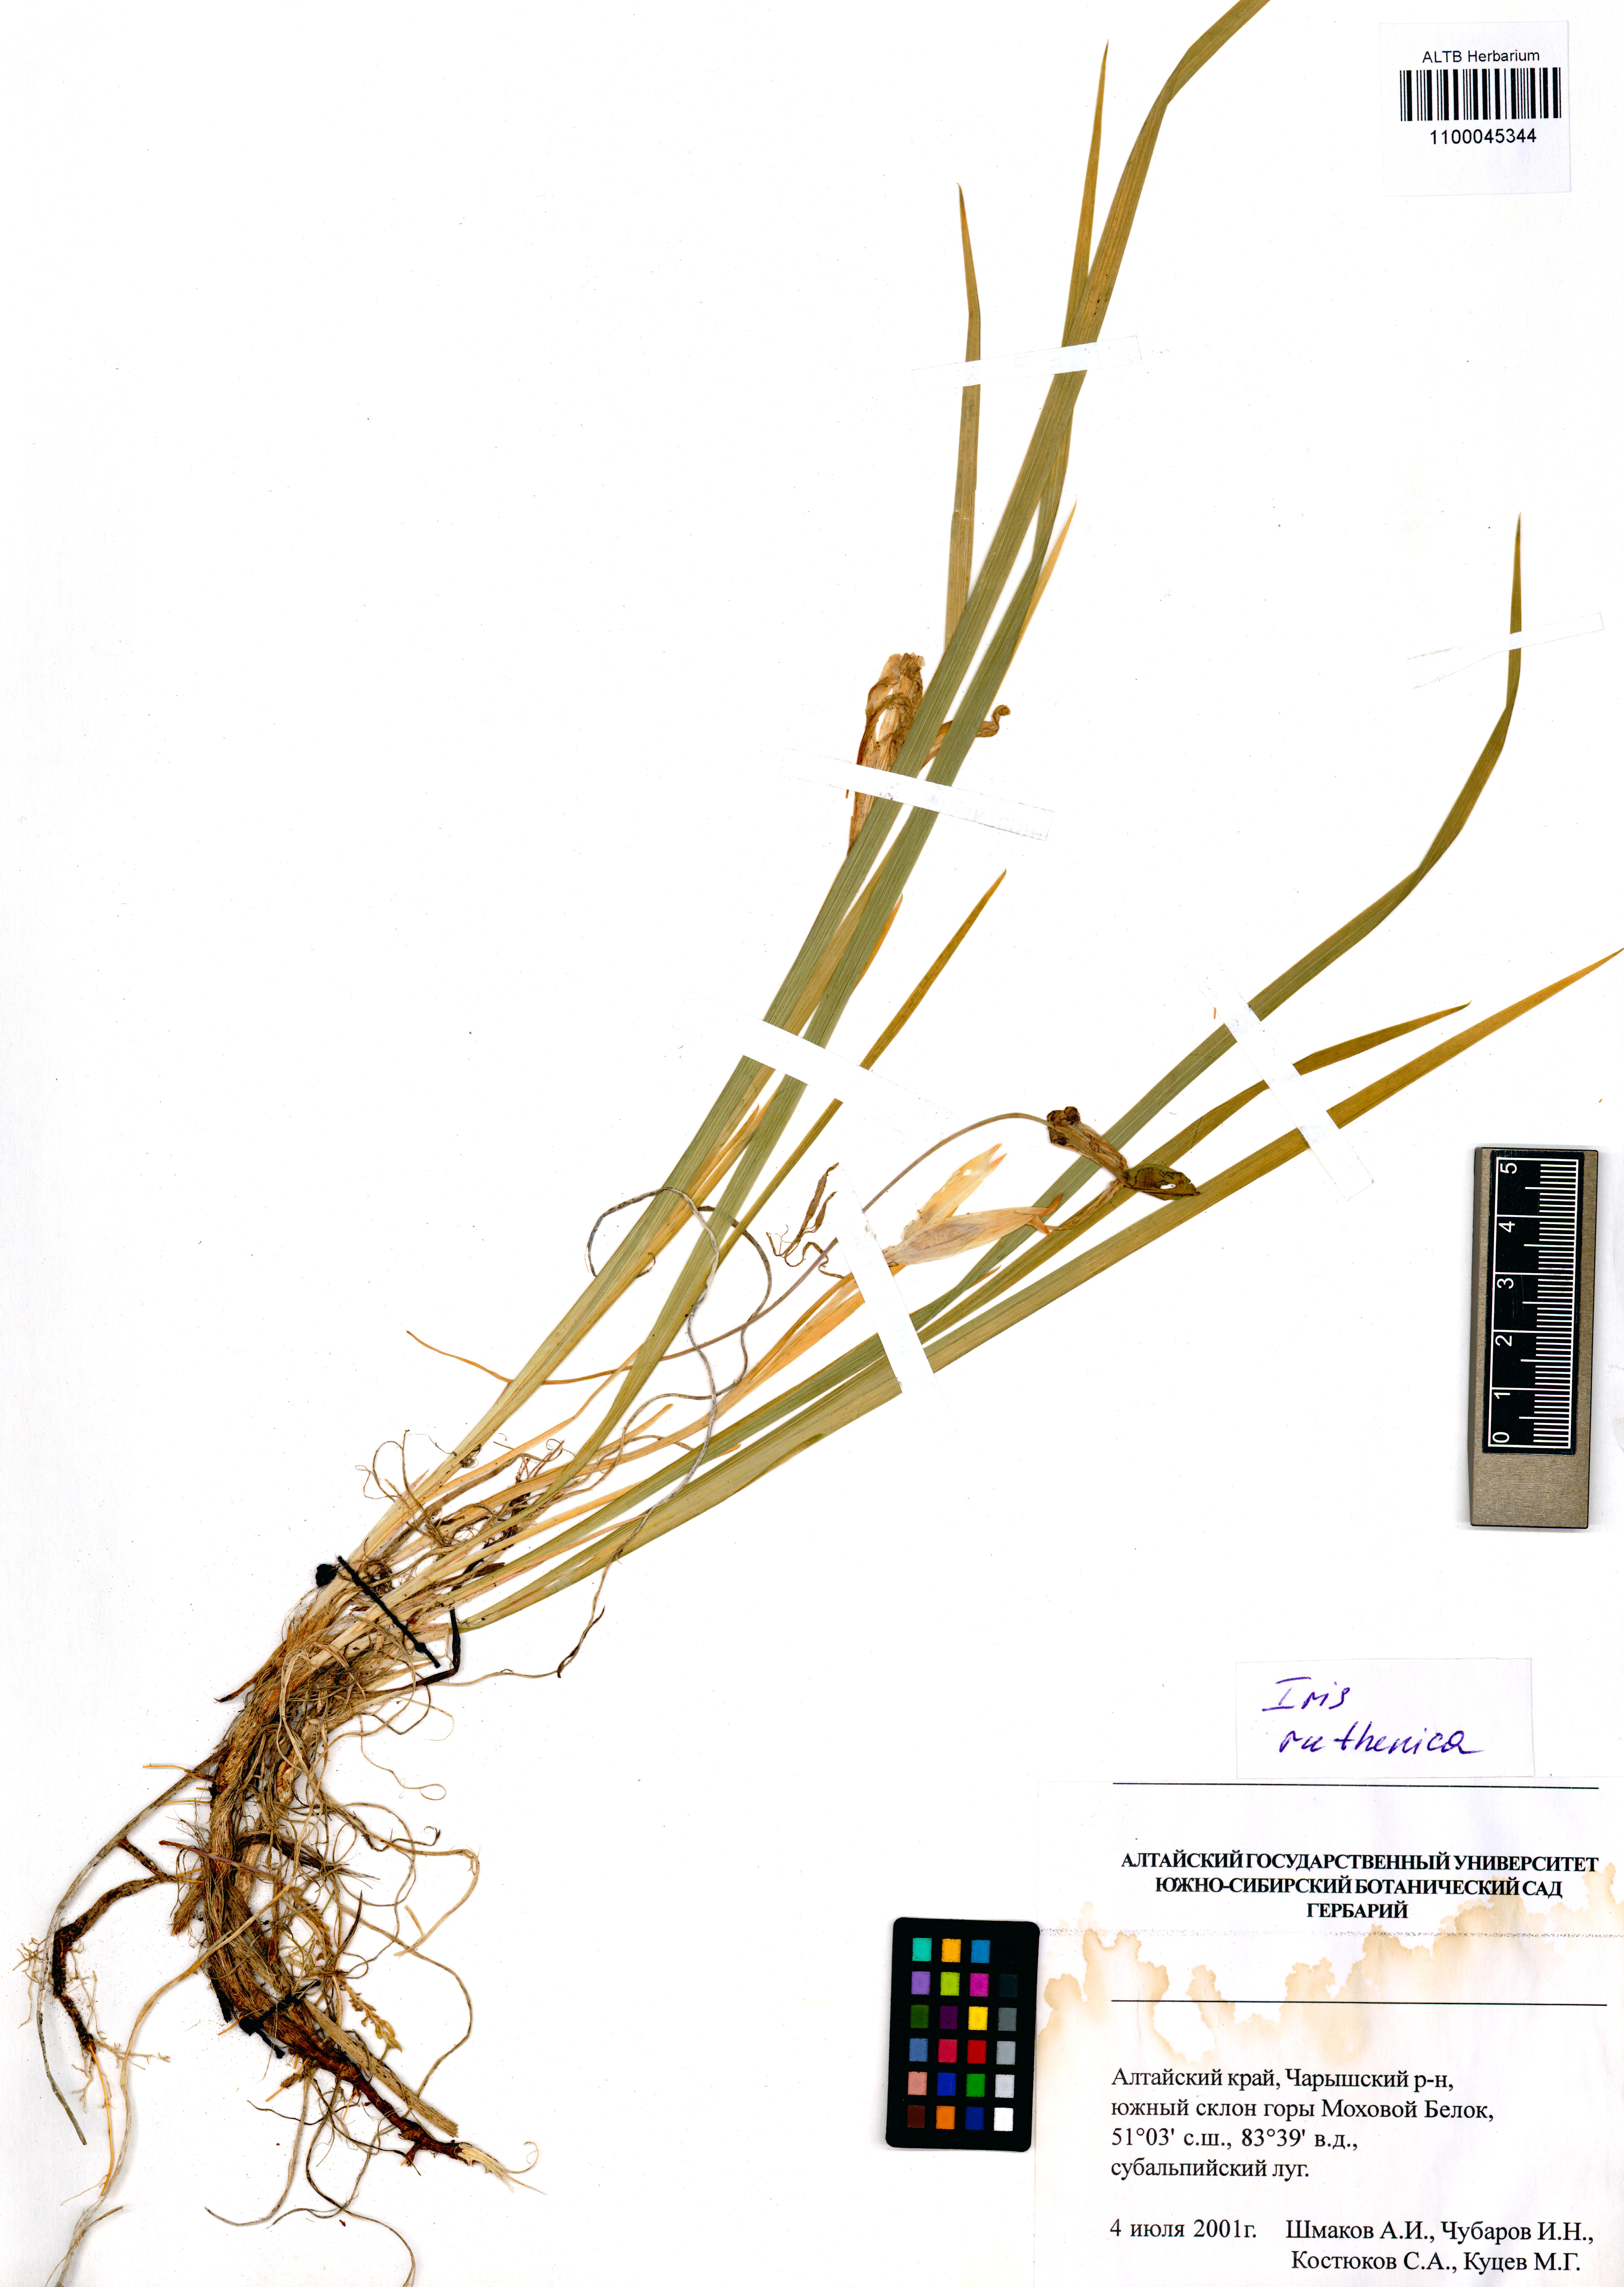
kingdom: Plantae
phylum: Tracheophyta
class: Liliopsida
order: Asparagales
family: Iridaceae
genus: Iris
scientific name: Iris ruthenica
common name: Purple-bract iris
